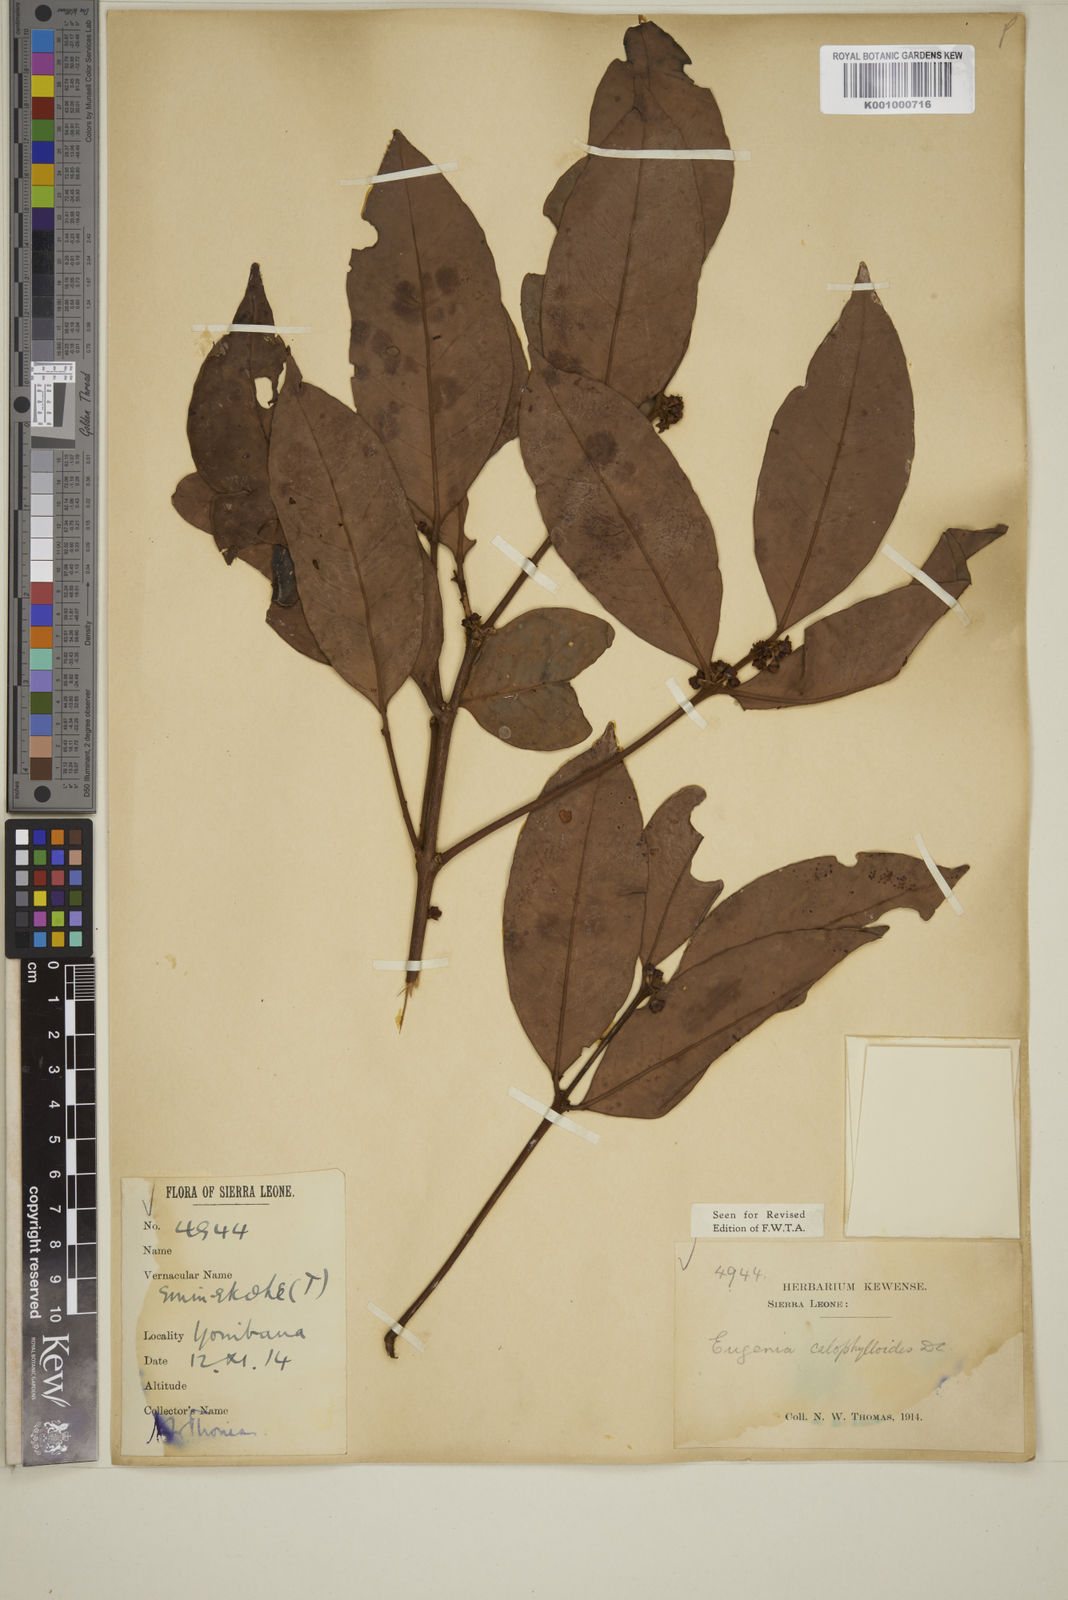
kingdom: Plantae
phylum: Tracheophyta
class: Magnoliopsida
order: Myrtales
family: Myrtaceae
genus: Eugenia
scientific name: Eugenia calophylloides
